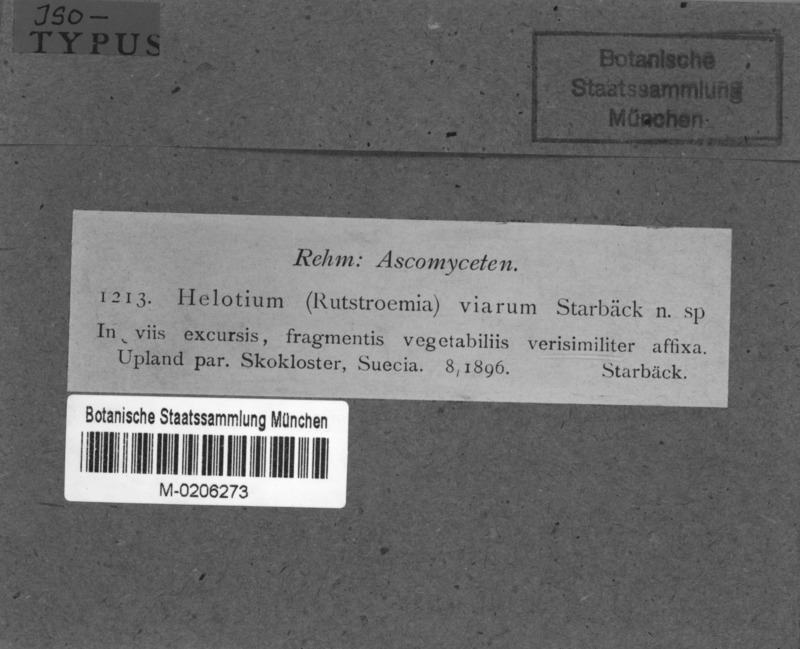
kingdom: Fungi
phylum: Ascomycota
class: Leotiomycetes
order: Helotiales
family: Sclerotiniaceae
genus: Ciboria
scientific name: Ciboria viarum
